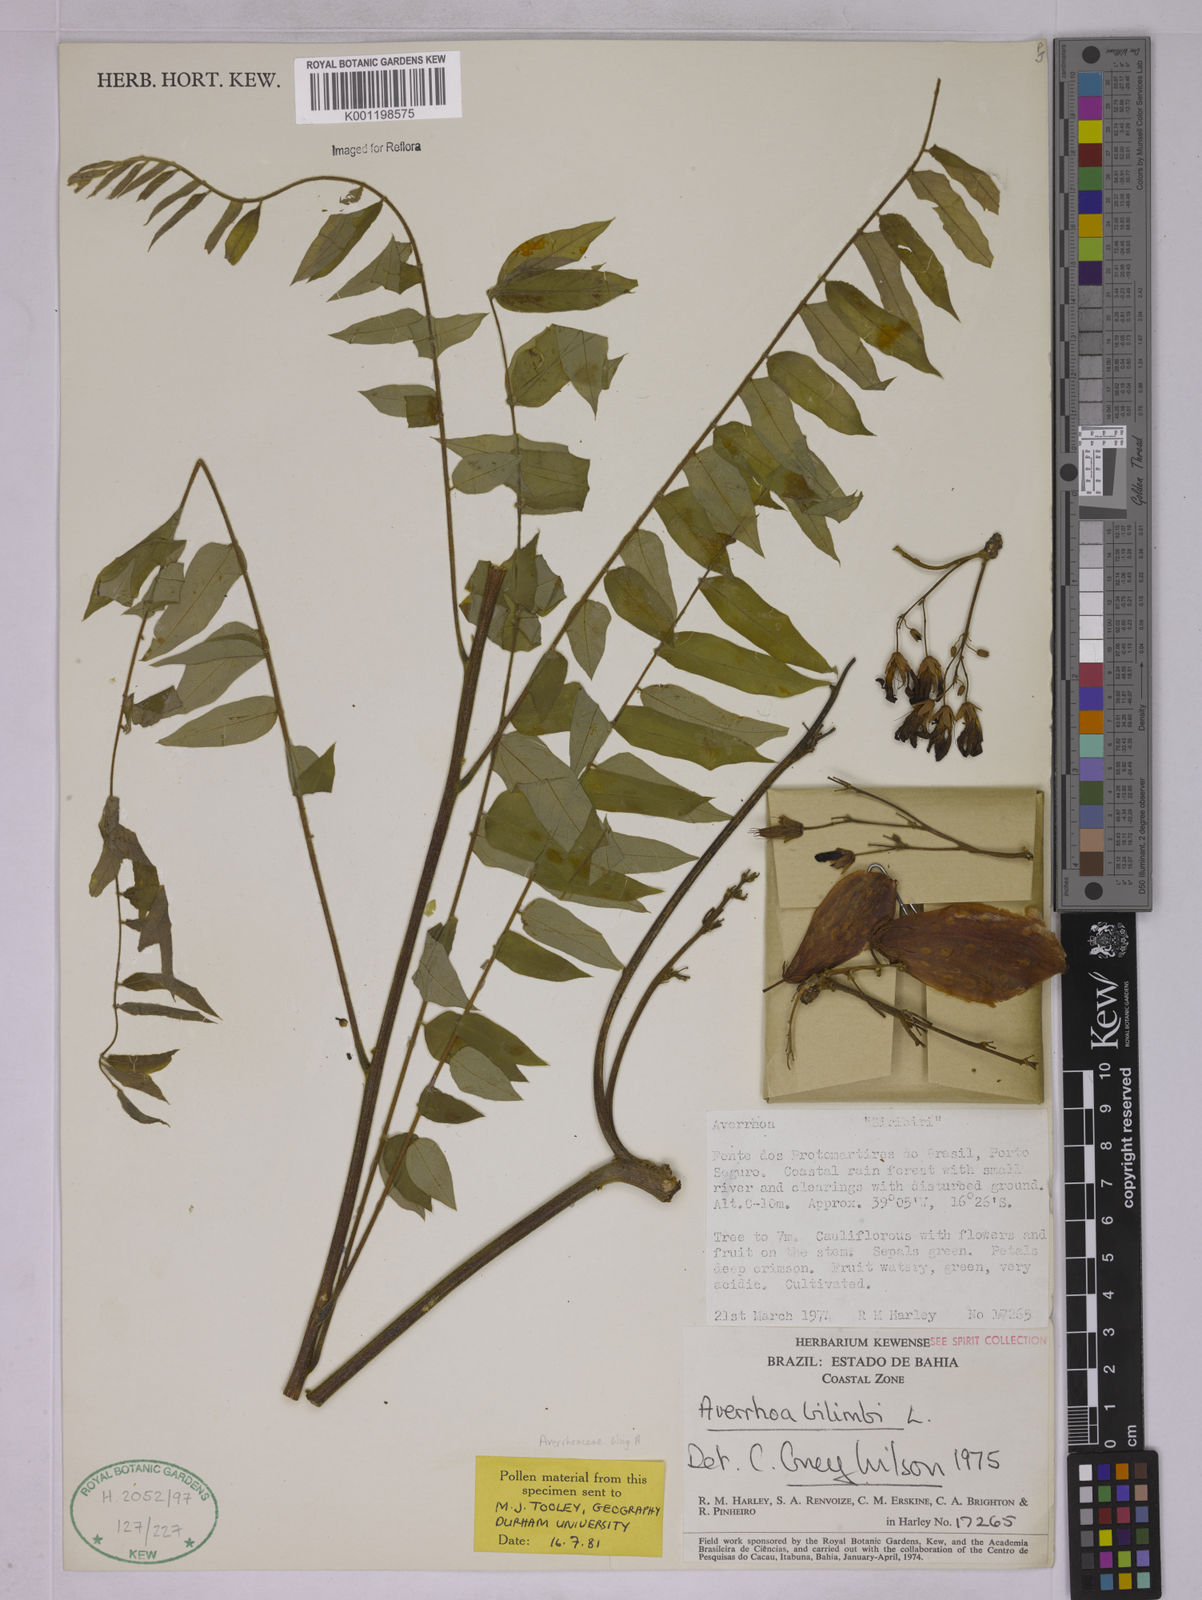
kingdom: Plantae
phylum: Tracheophyta
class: Magnoliopsida
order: Oxalidales
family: Oxalidaceae
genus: Averrhoa
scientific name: Averrhoa bilimbi
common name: Bilimbi
